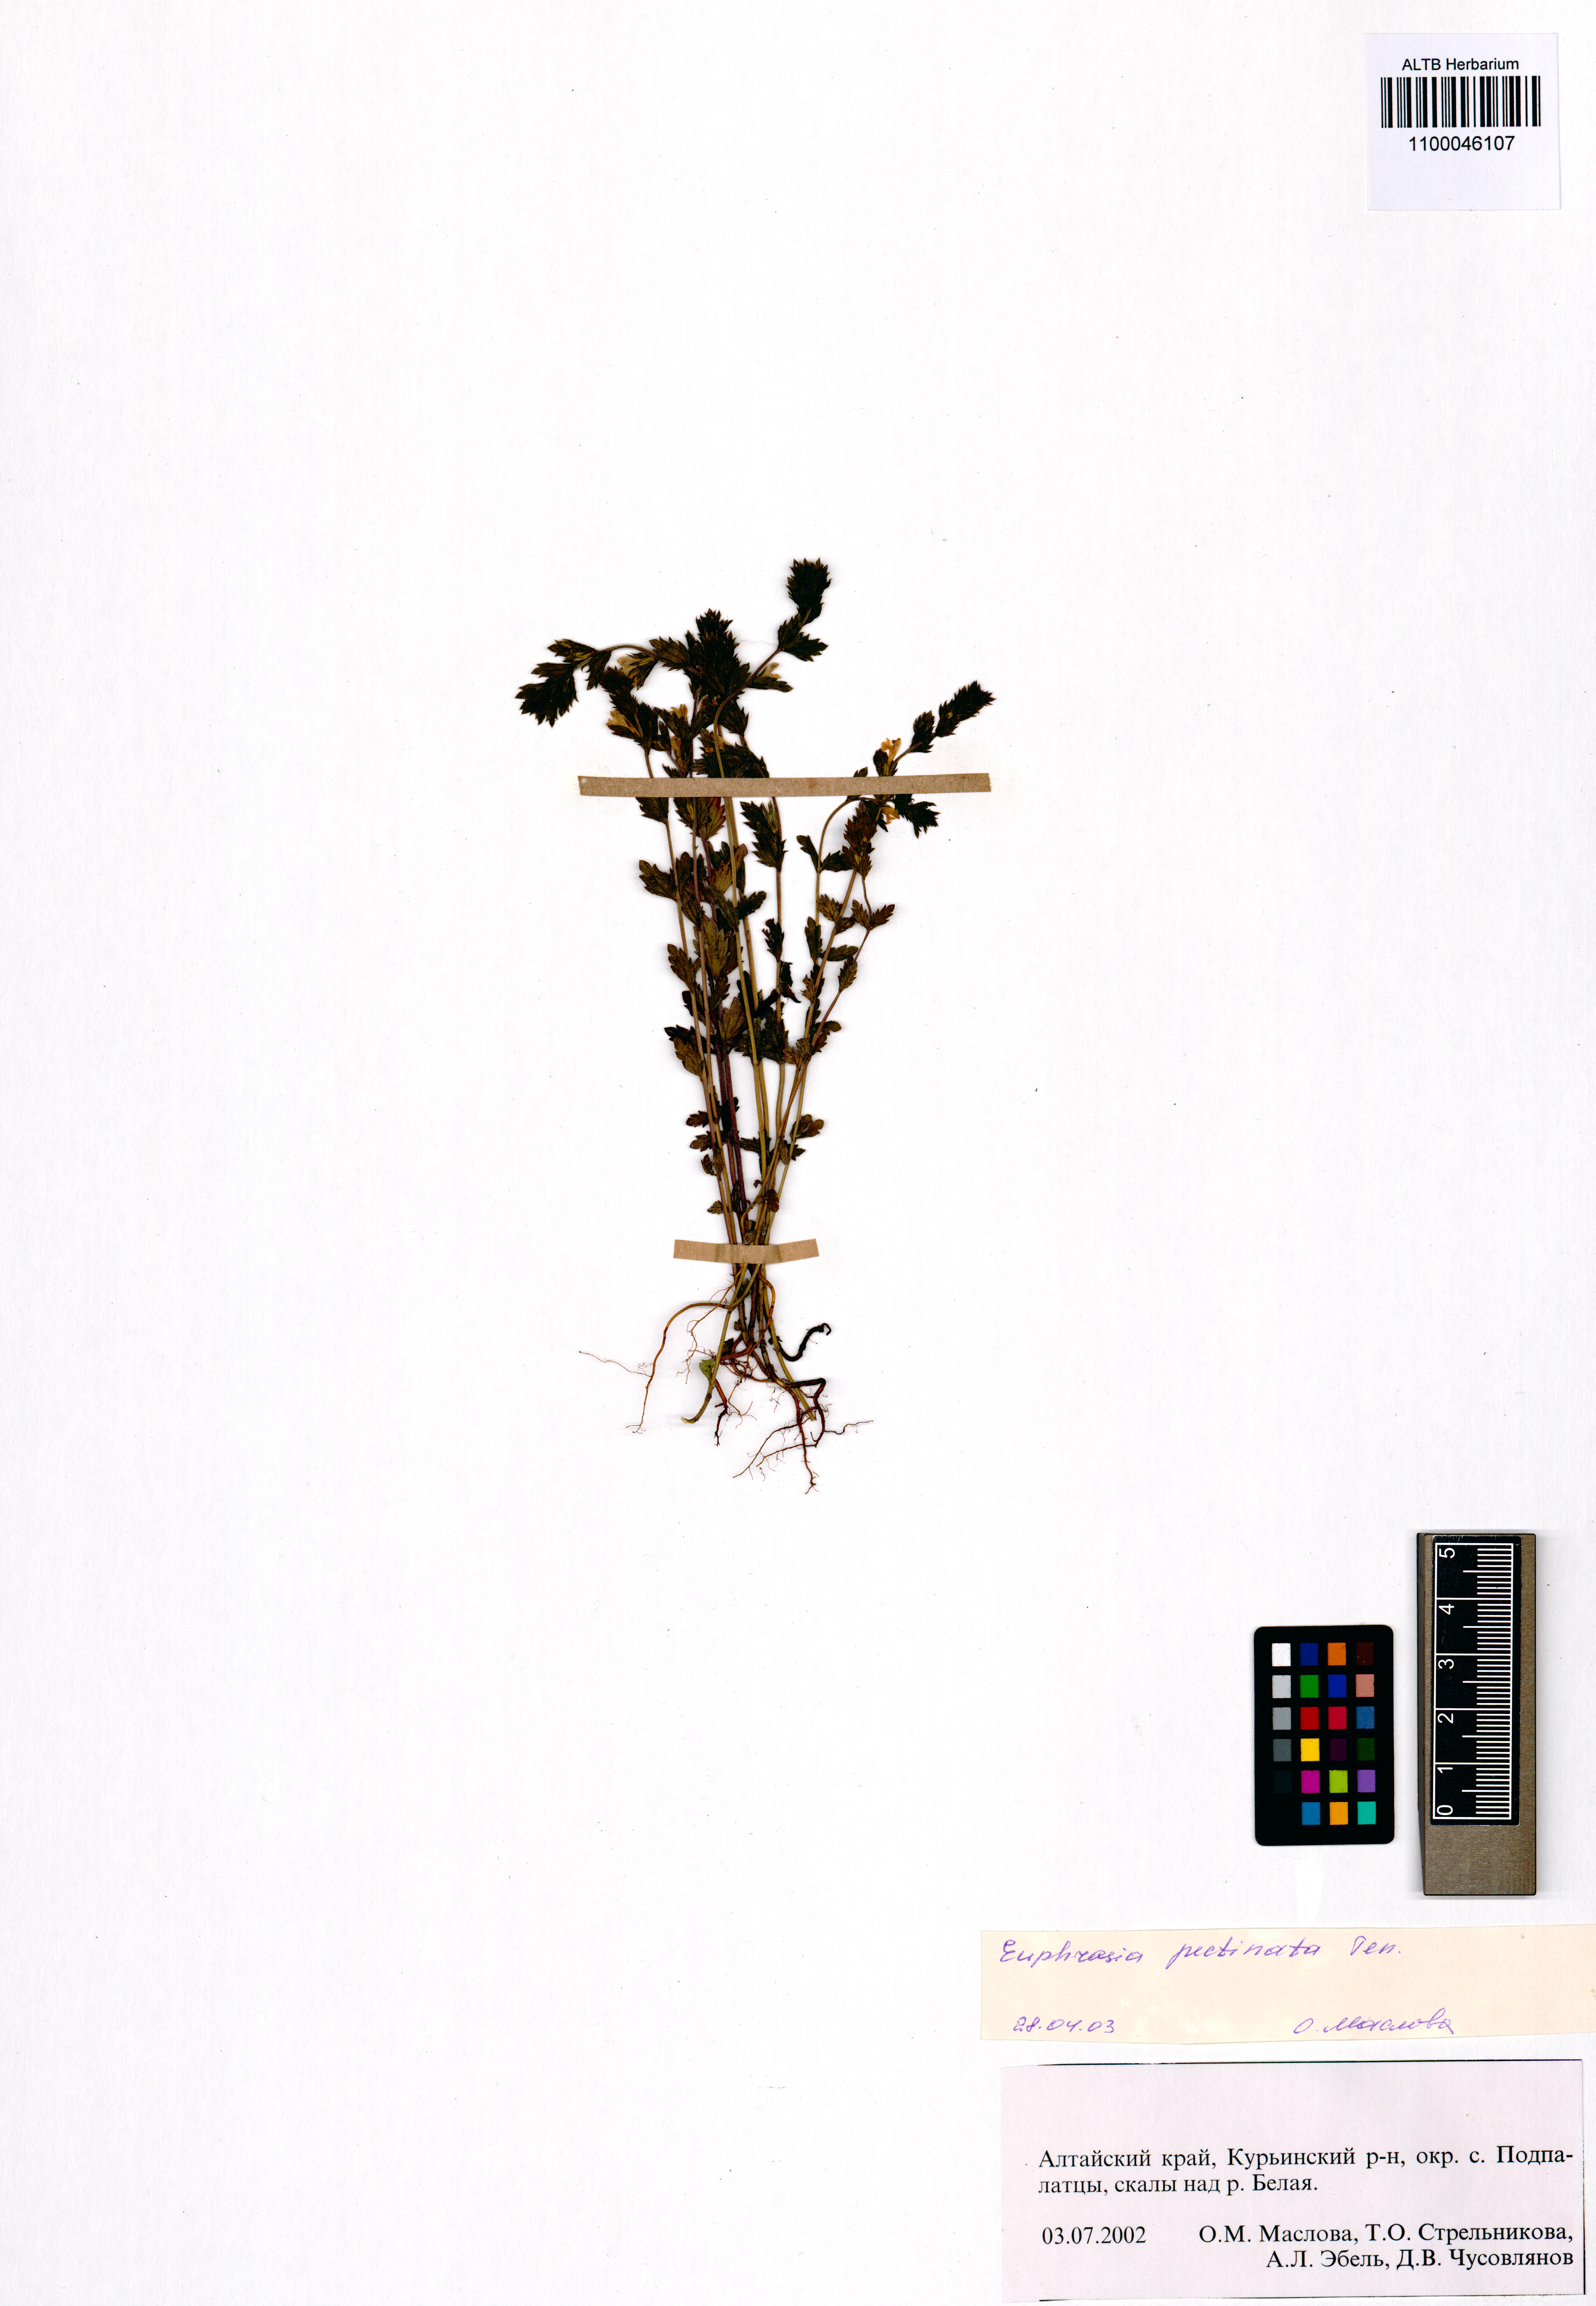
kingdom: Plantae
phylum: Tracheophyta
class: Magnoliopsida
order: Lamiales
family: Orobanchaceae
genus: Euphrasia
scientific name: Euphrasia pectinata
